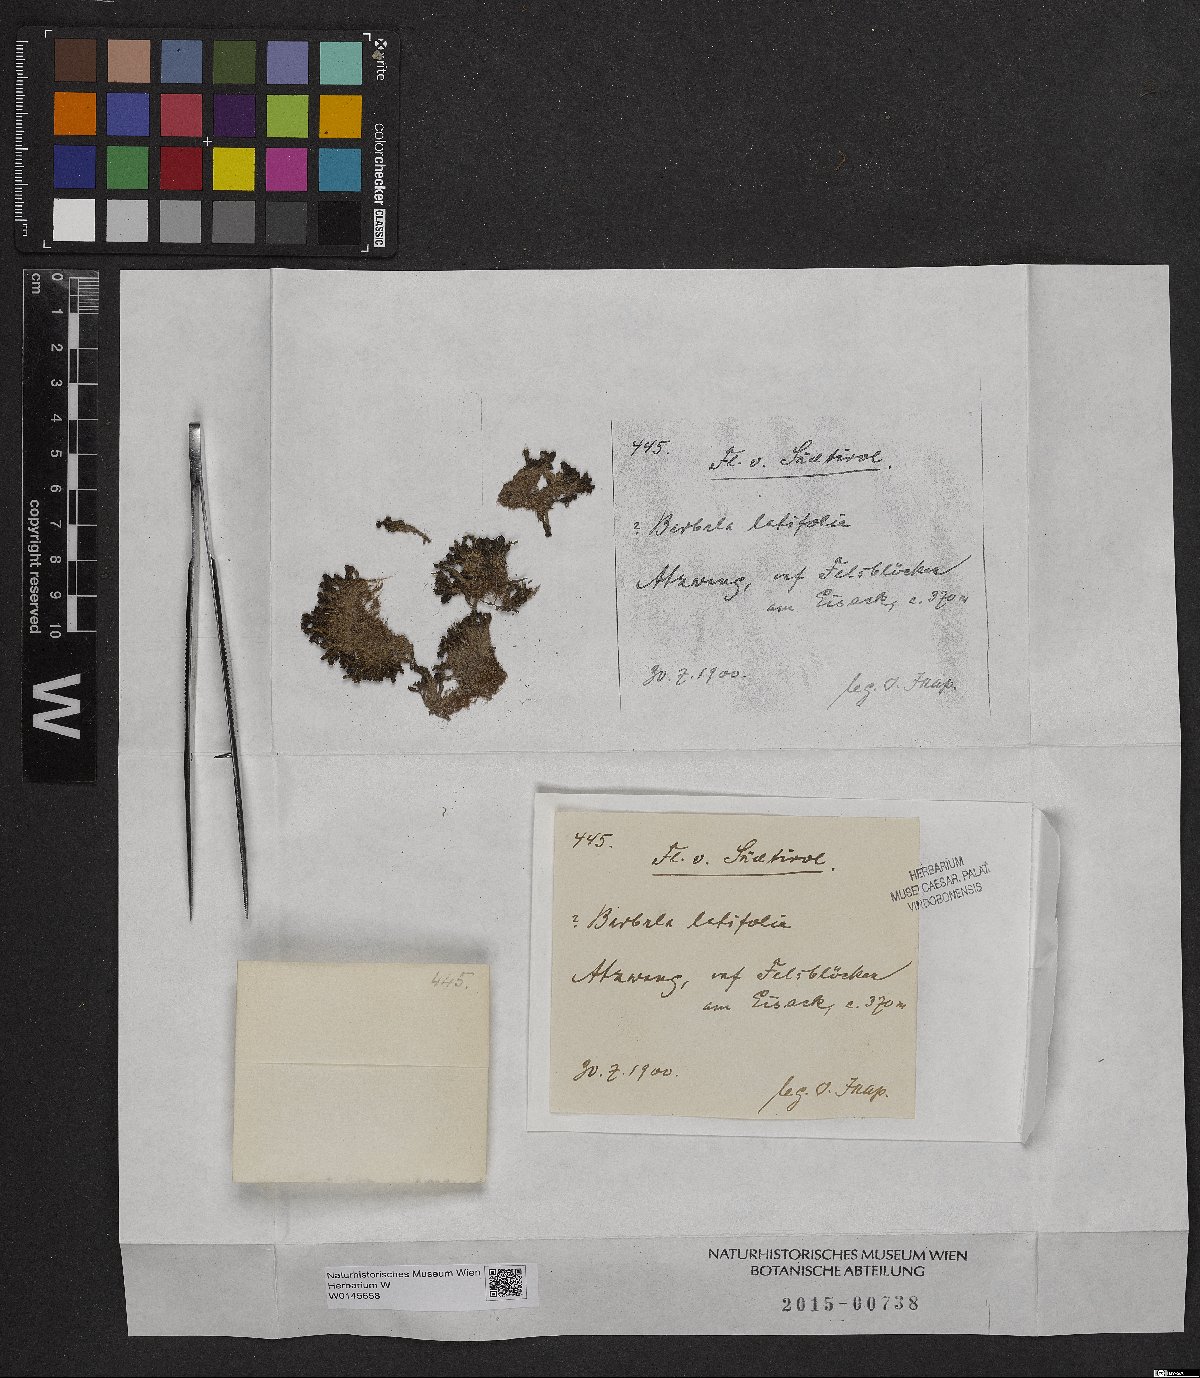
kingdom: Plantae
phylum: Bryophyta
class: Bryopsida
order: Pottiales
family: Pottiaceae
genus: Hydrogonium
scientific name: Hydrogonium bolleanum
